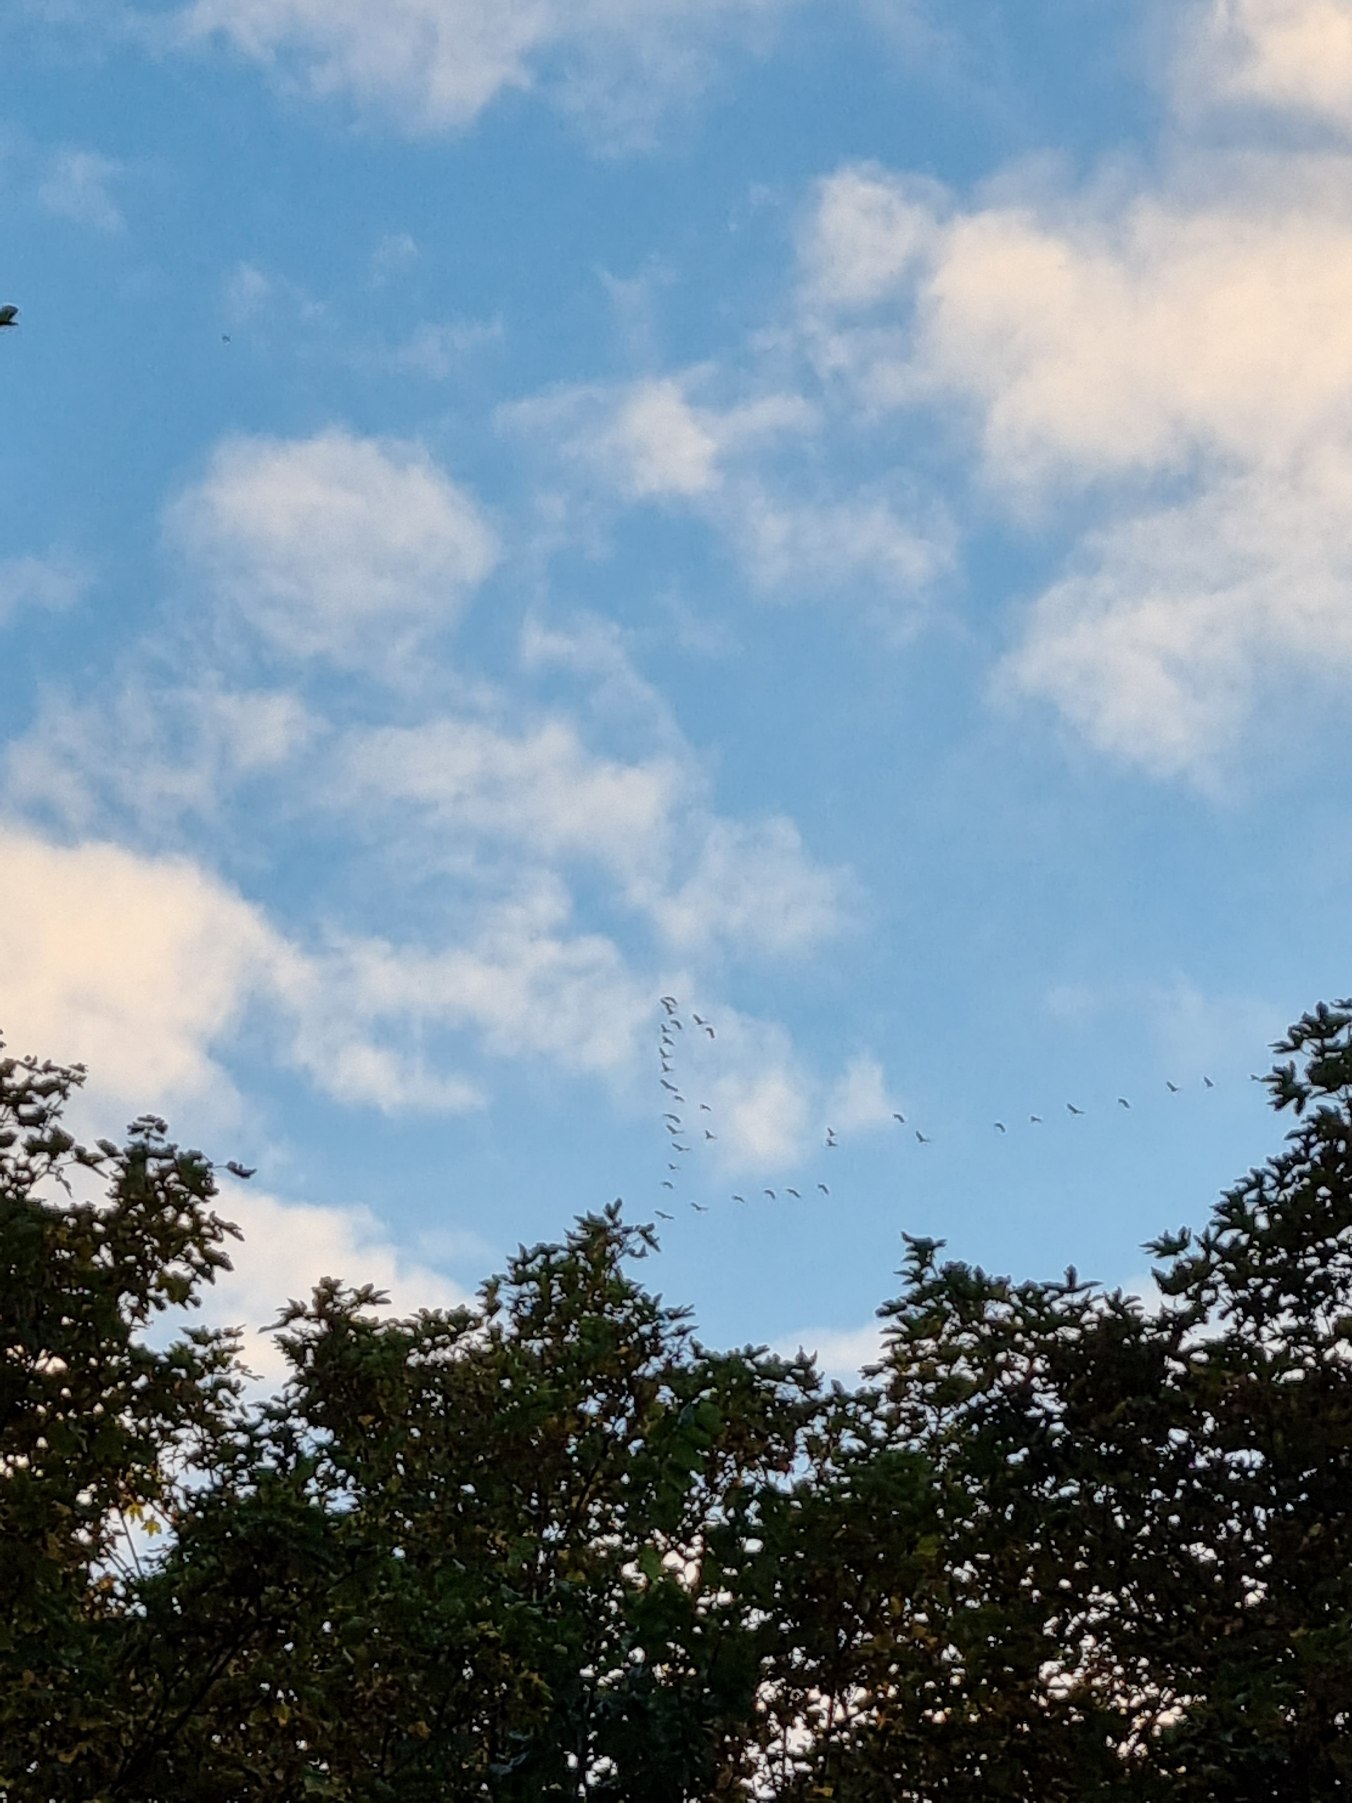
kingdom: Animalia
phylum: Chordata
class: Aves
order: Gruiformes
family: Gruidae
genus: Grus
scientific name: Grus grus
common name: Trane
